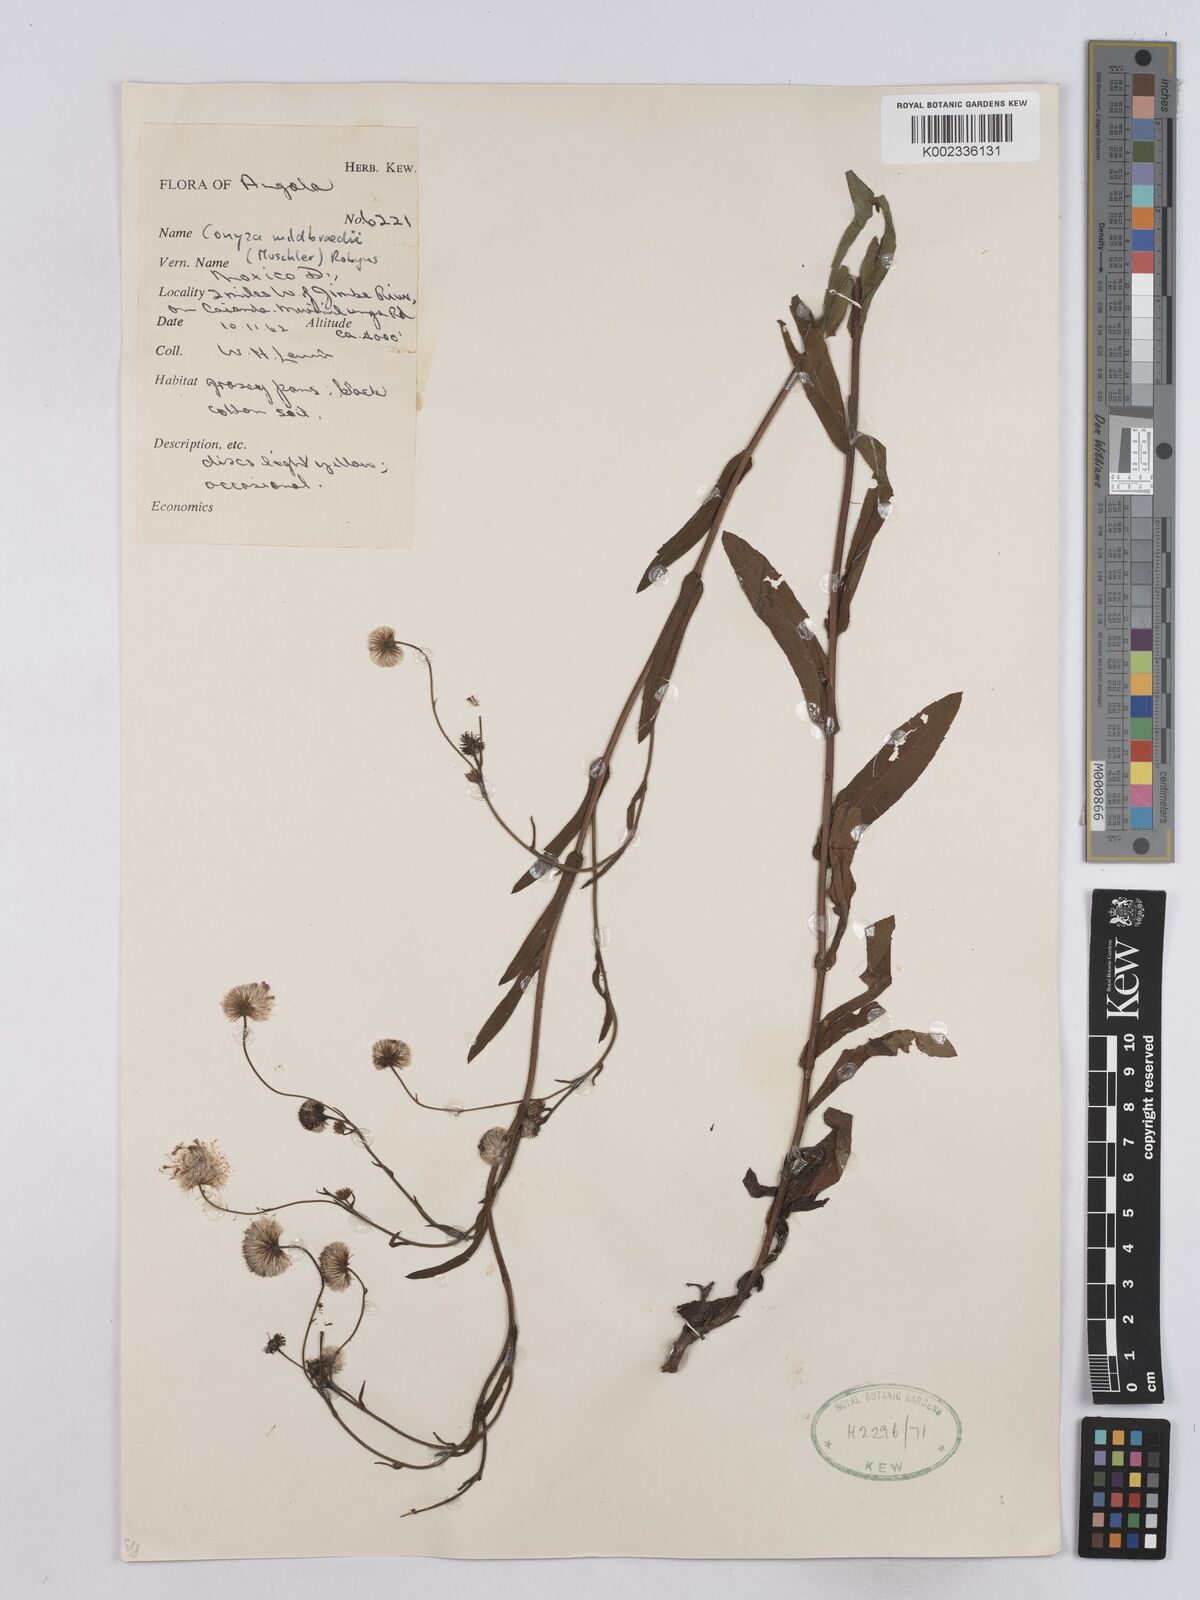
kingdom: Plantae
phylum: Tracheophyta
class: Magnoliopsida
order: Asterales
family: Asteraceae
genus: Conyza
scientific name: Conyza limosa
